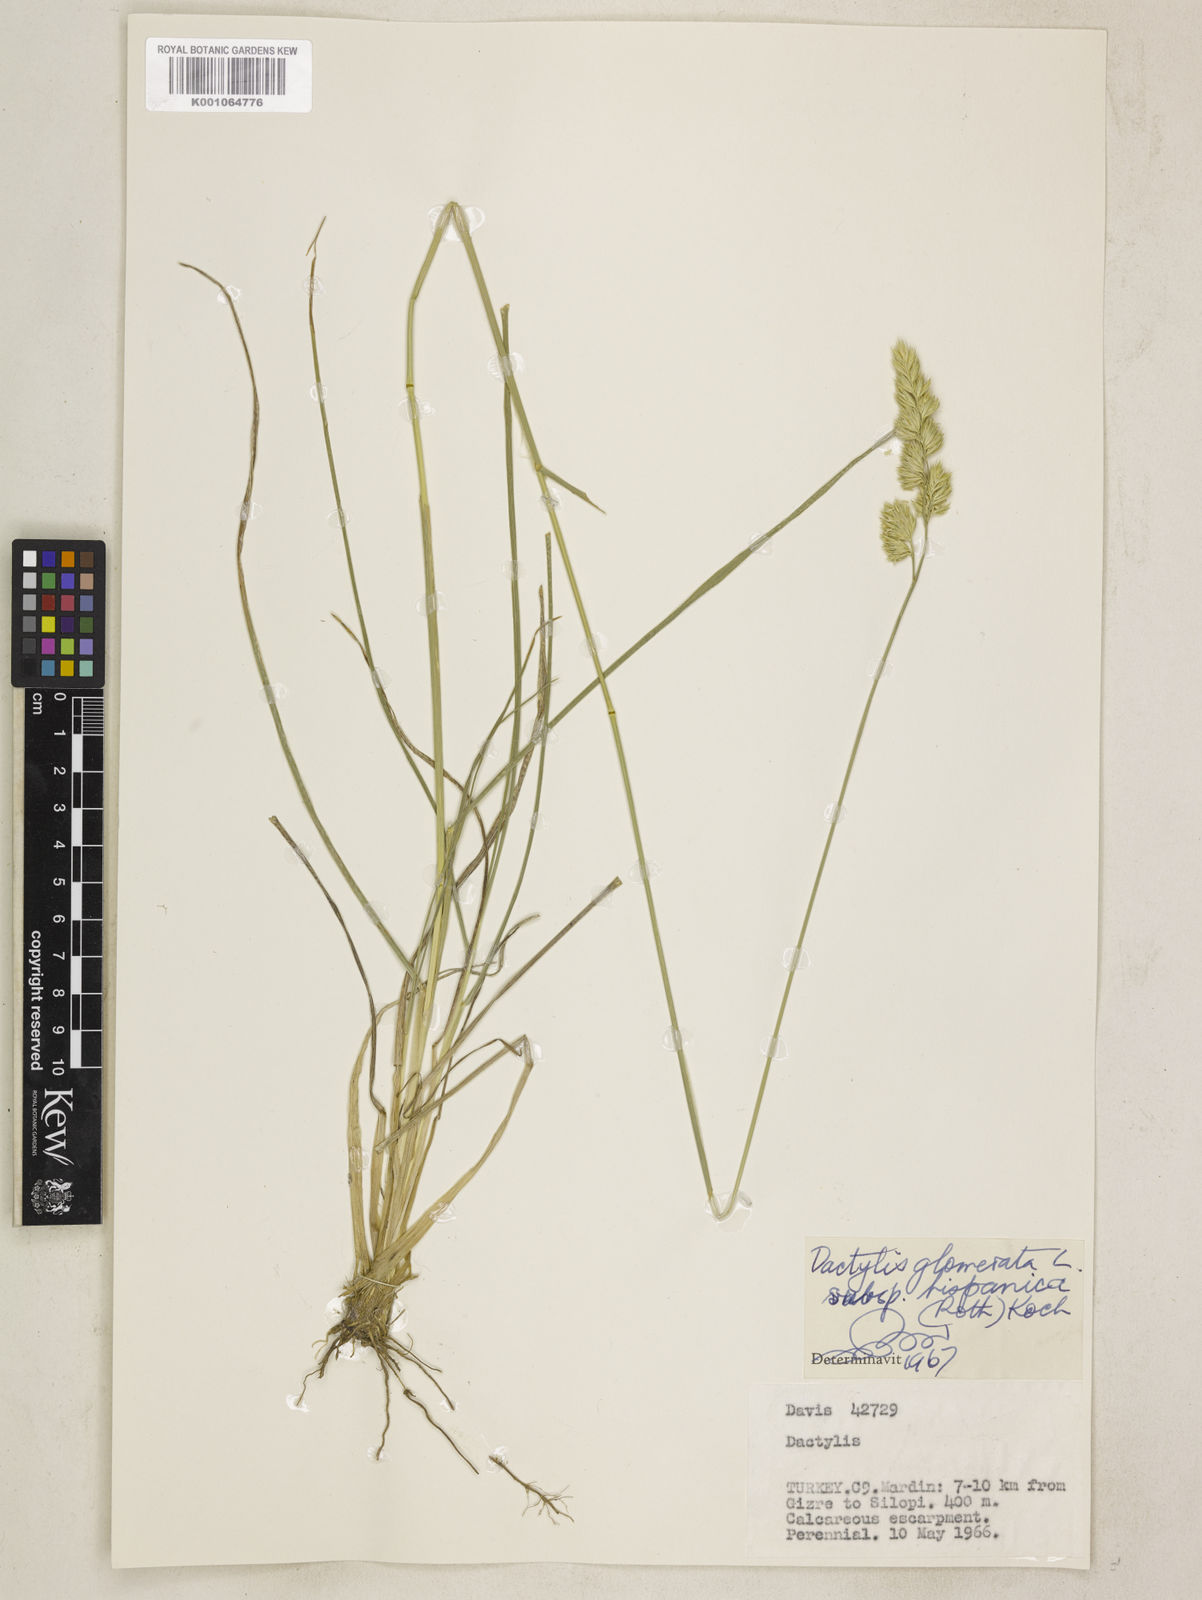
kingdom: Plantae
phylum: Tracheophyta
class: Liliopsida
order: Poales
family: Poaceae
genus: Dactylis
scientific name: Dactylis glomerata
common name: Orchardgrass
